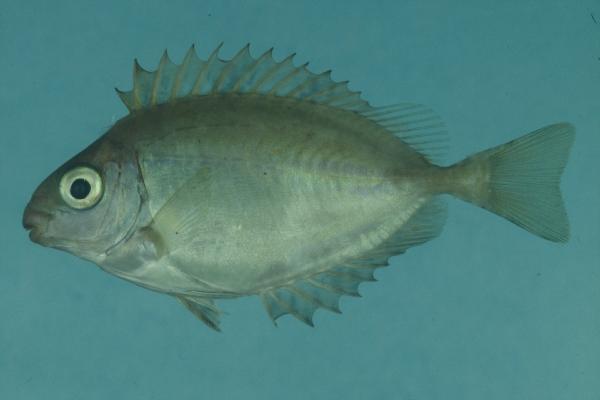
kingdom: Animalia
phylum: Chordata
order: Perciformes
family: Siganidae
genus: Siganus
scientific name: Siganus sutor
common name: Shoemaker spinefoot
